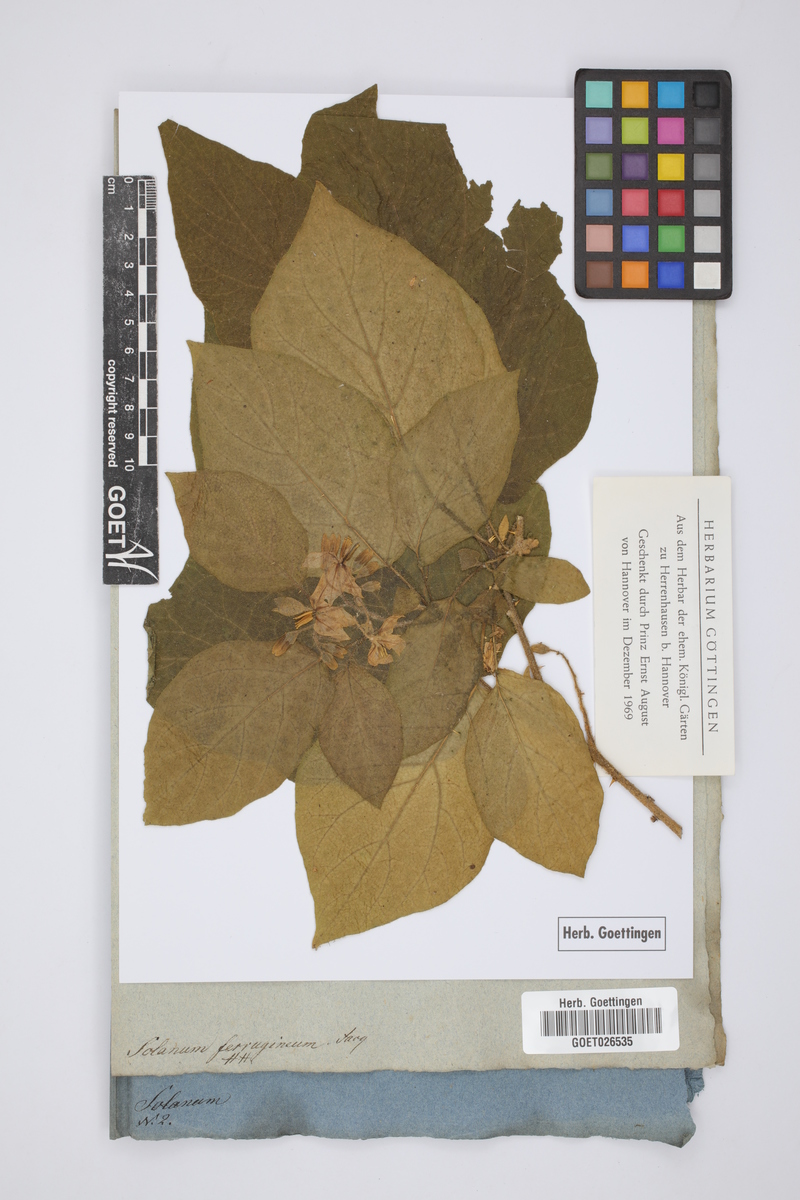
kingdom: Plantae
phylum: Tracheophyta
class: Magnoliopsida
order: Solanales
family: Solanaceae
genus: Solanum
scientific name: Solanum ferrugineum
